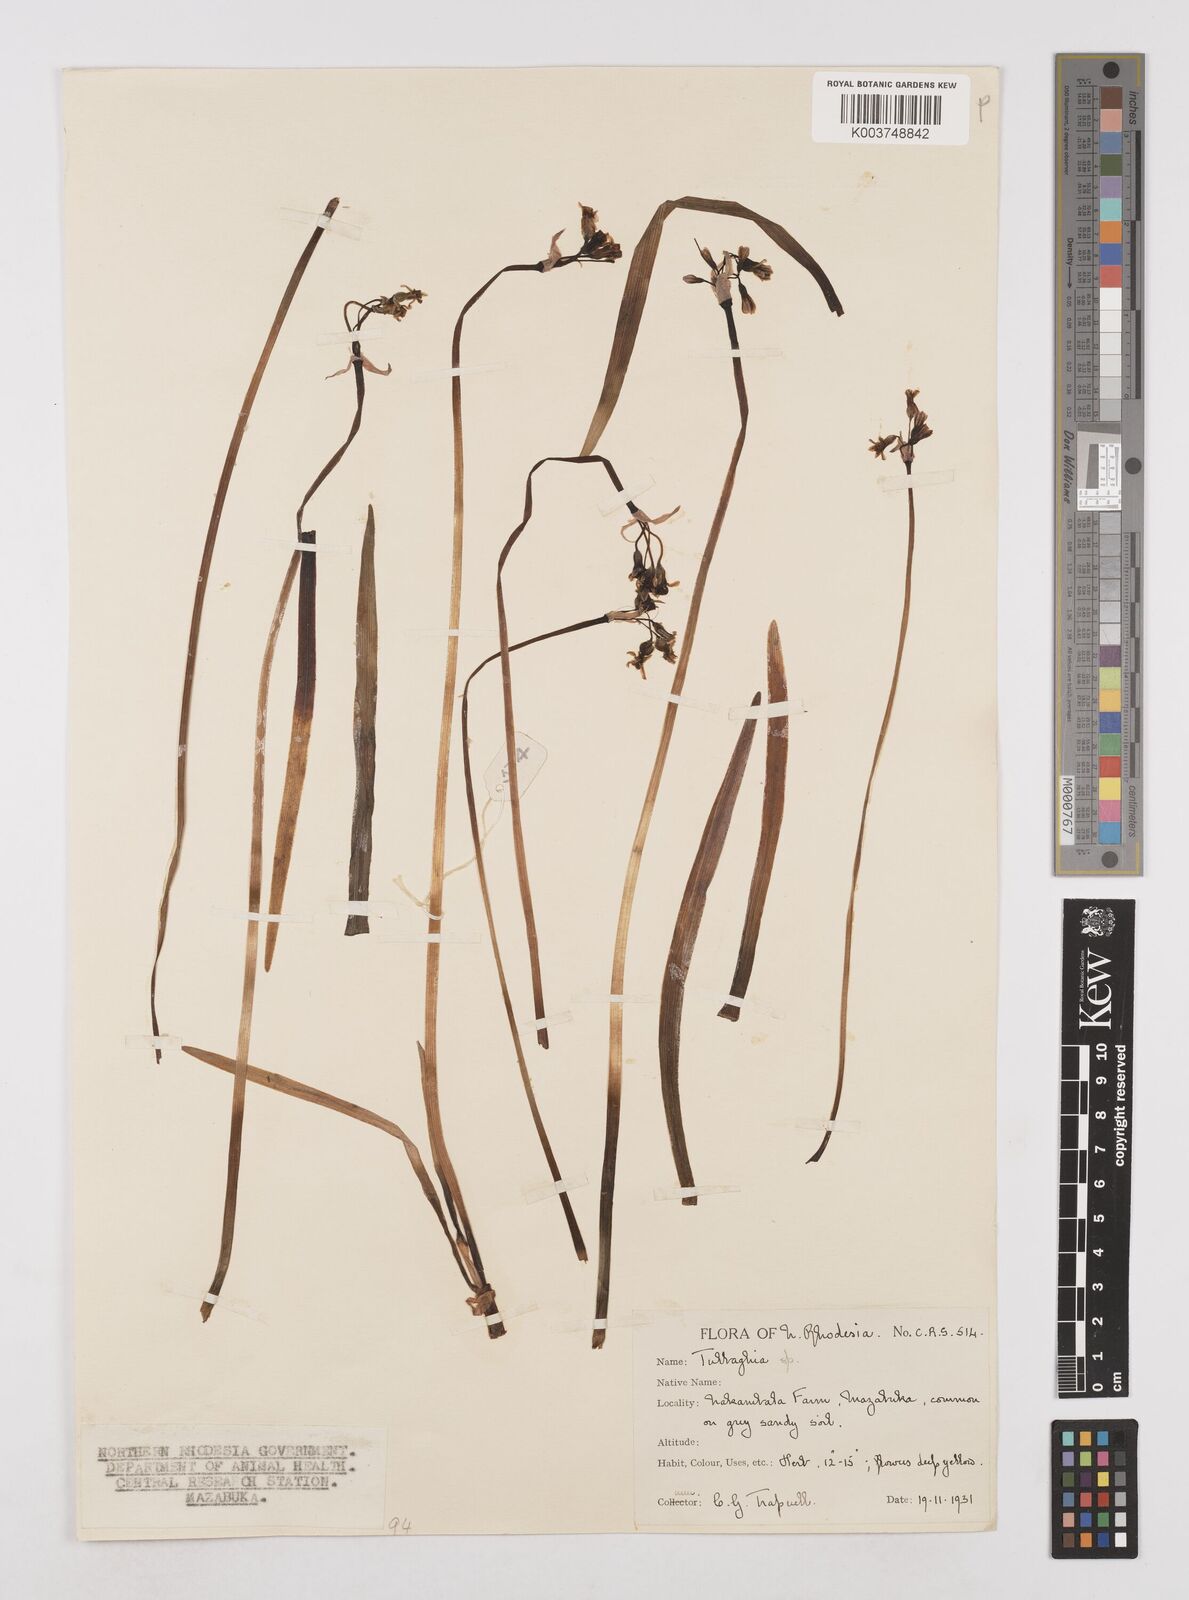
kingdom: Plantae
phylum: Tracheophyta
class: Liliopsida
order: Asparagales
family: Amaryllidaceae
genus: Tulbaghia
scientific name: Tulbaghia cameronii
